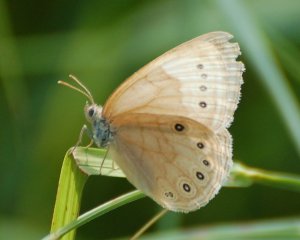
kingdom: Animalia
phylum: Arthropoda
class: Insecta
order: Lepidoptera
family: Nymphalidae
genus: Lethe
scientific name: Lethe eurydice
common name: Eyed Brown
